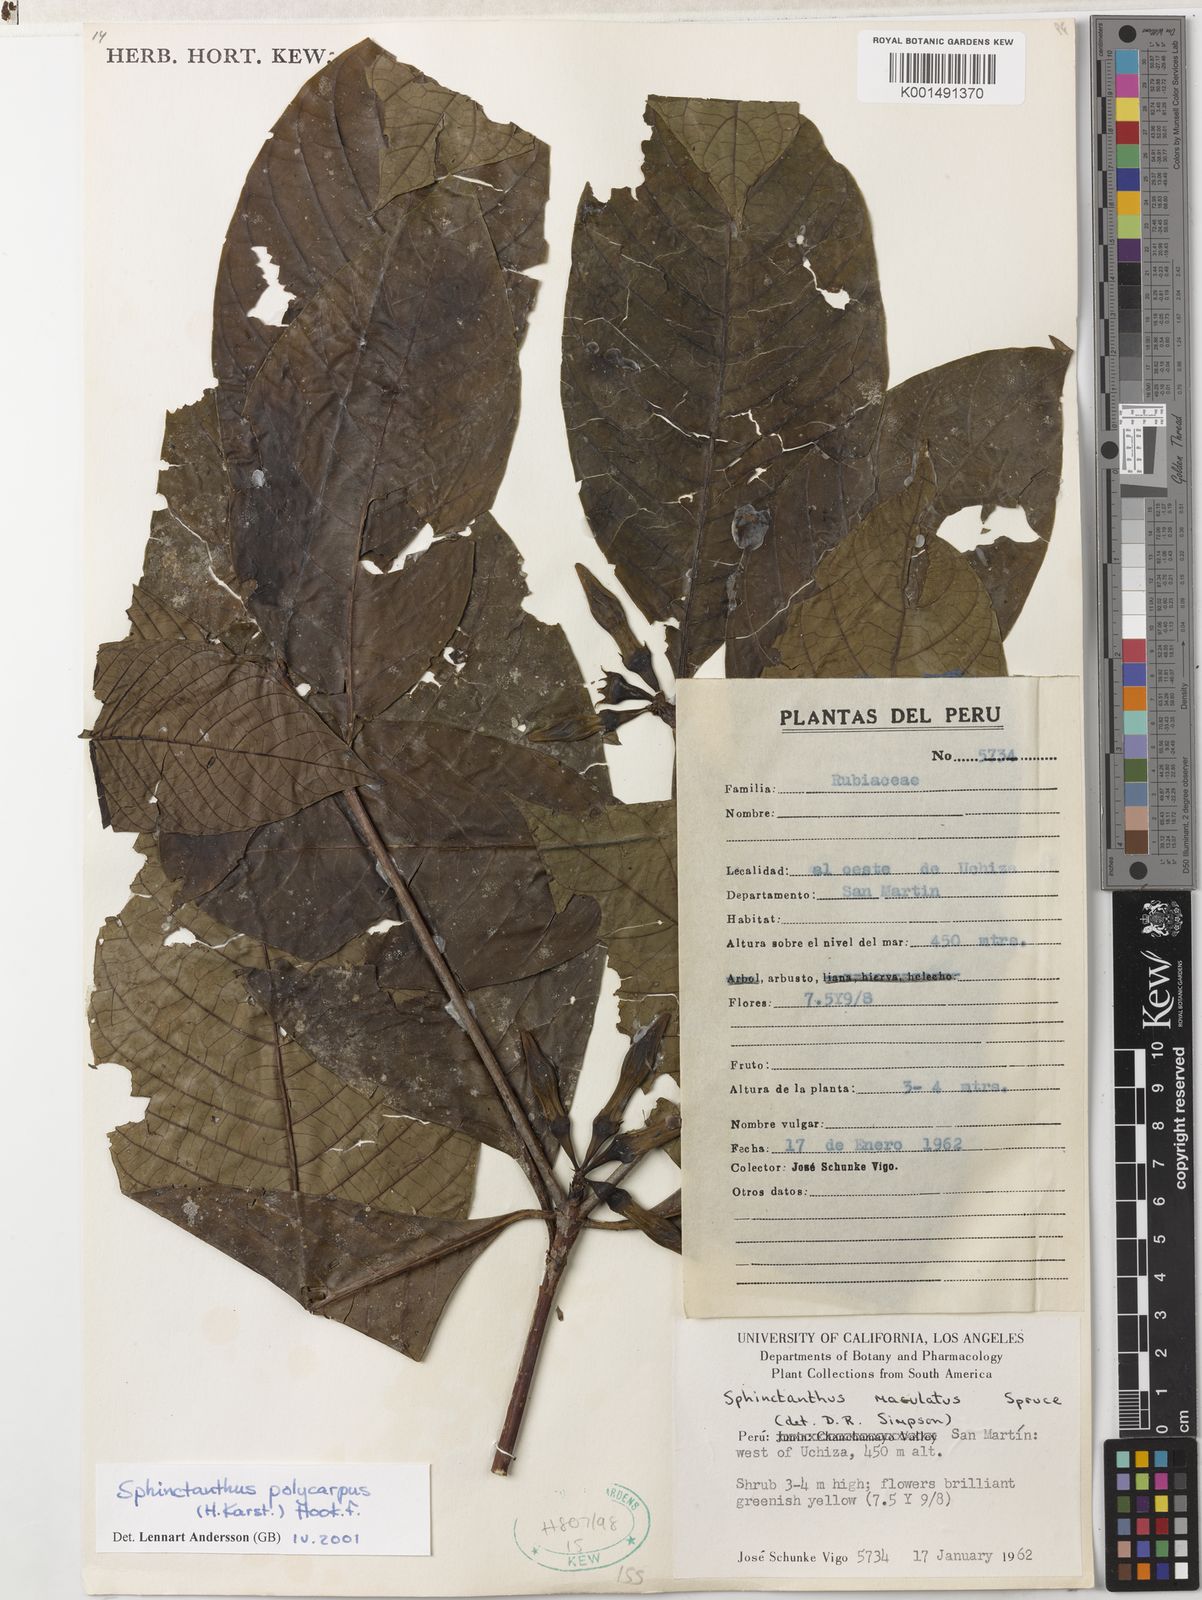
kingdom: Plantae
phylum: Tracheophyta
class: Magnoliopsida
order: Gentianales
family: Rubiaceae
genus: Sphinctanthus
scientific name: Sphinctanthus polycarpus
